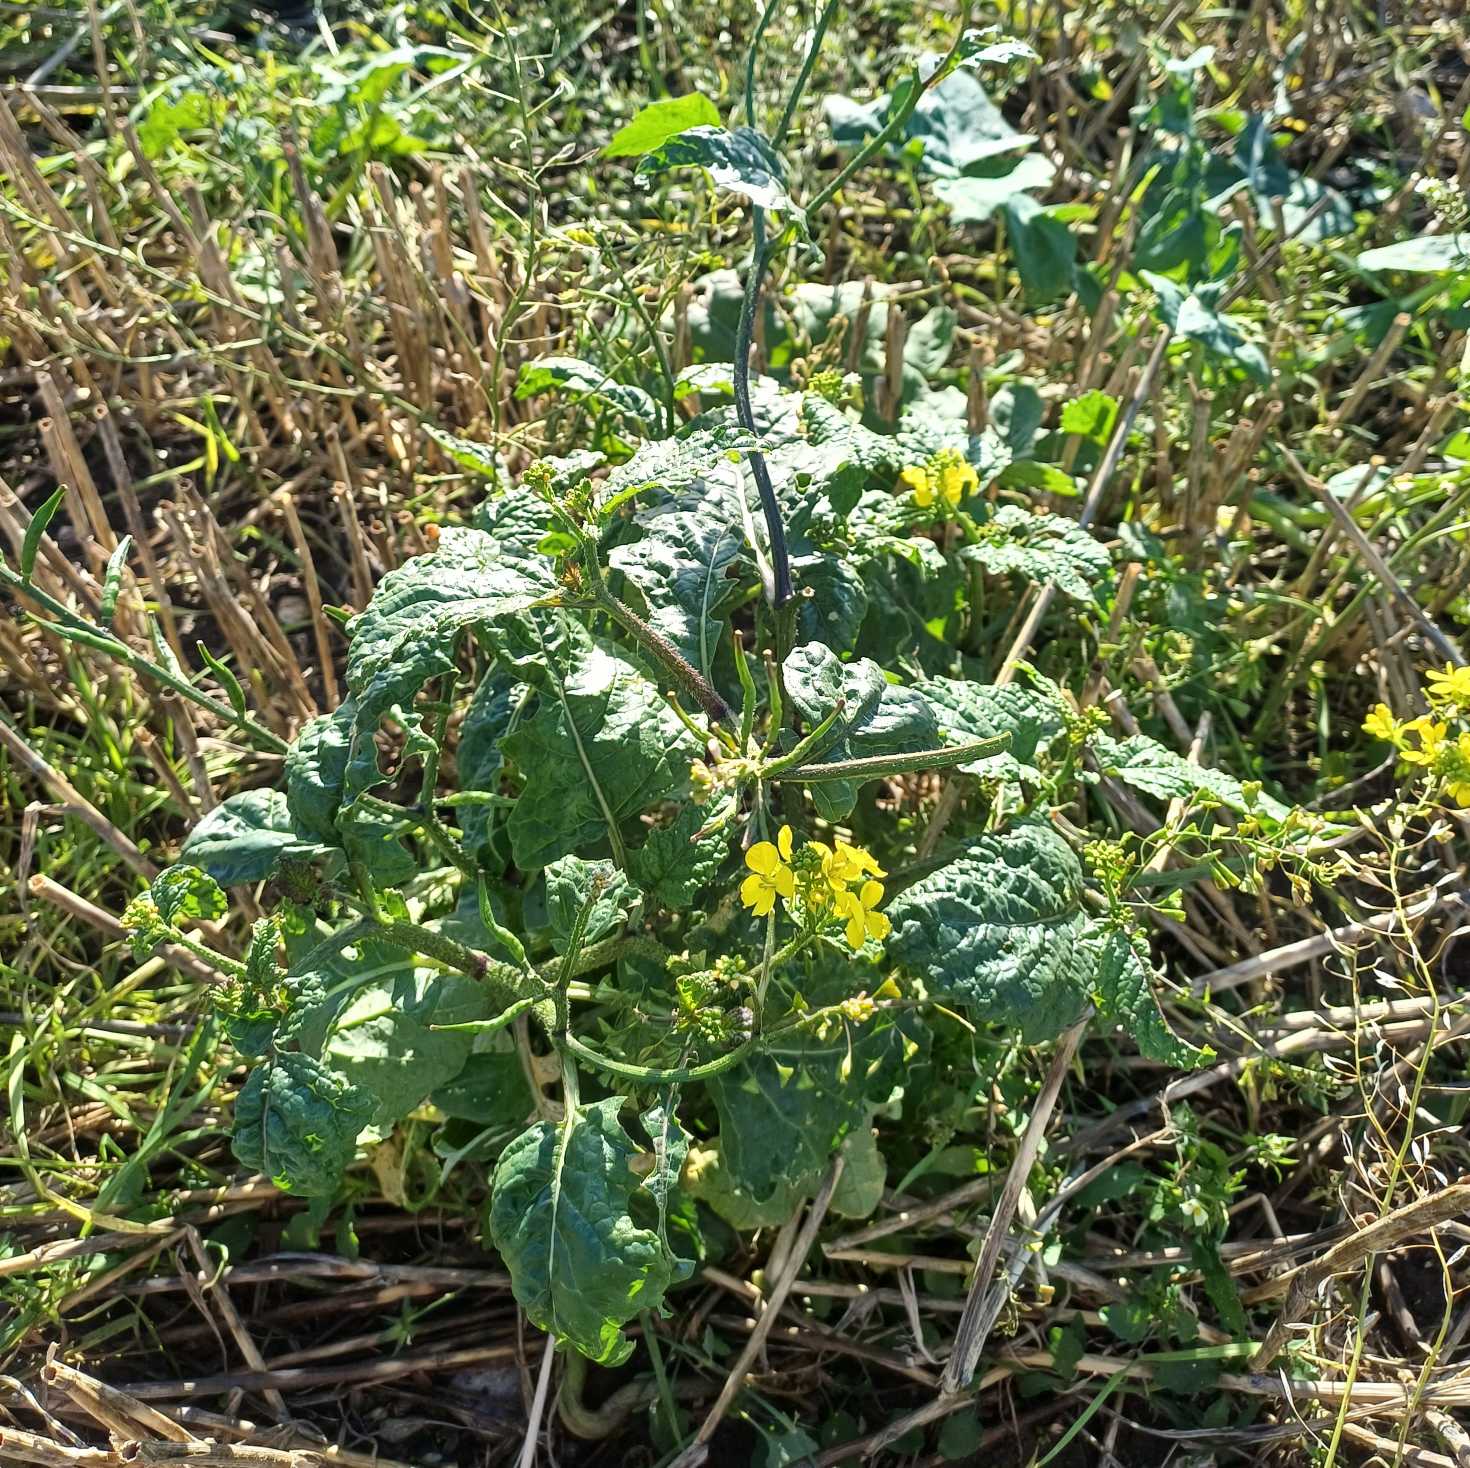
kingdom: Plantae
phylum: Tracheophyta
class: Magnoliopsida
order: Brassicales
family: Brassicaceae
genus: Sinapis
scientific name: Sinapis arvensis
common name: Ager-sennep
